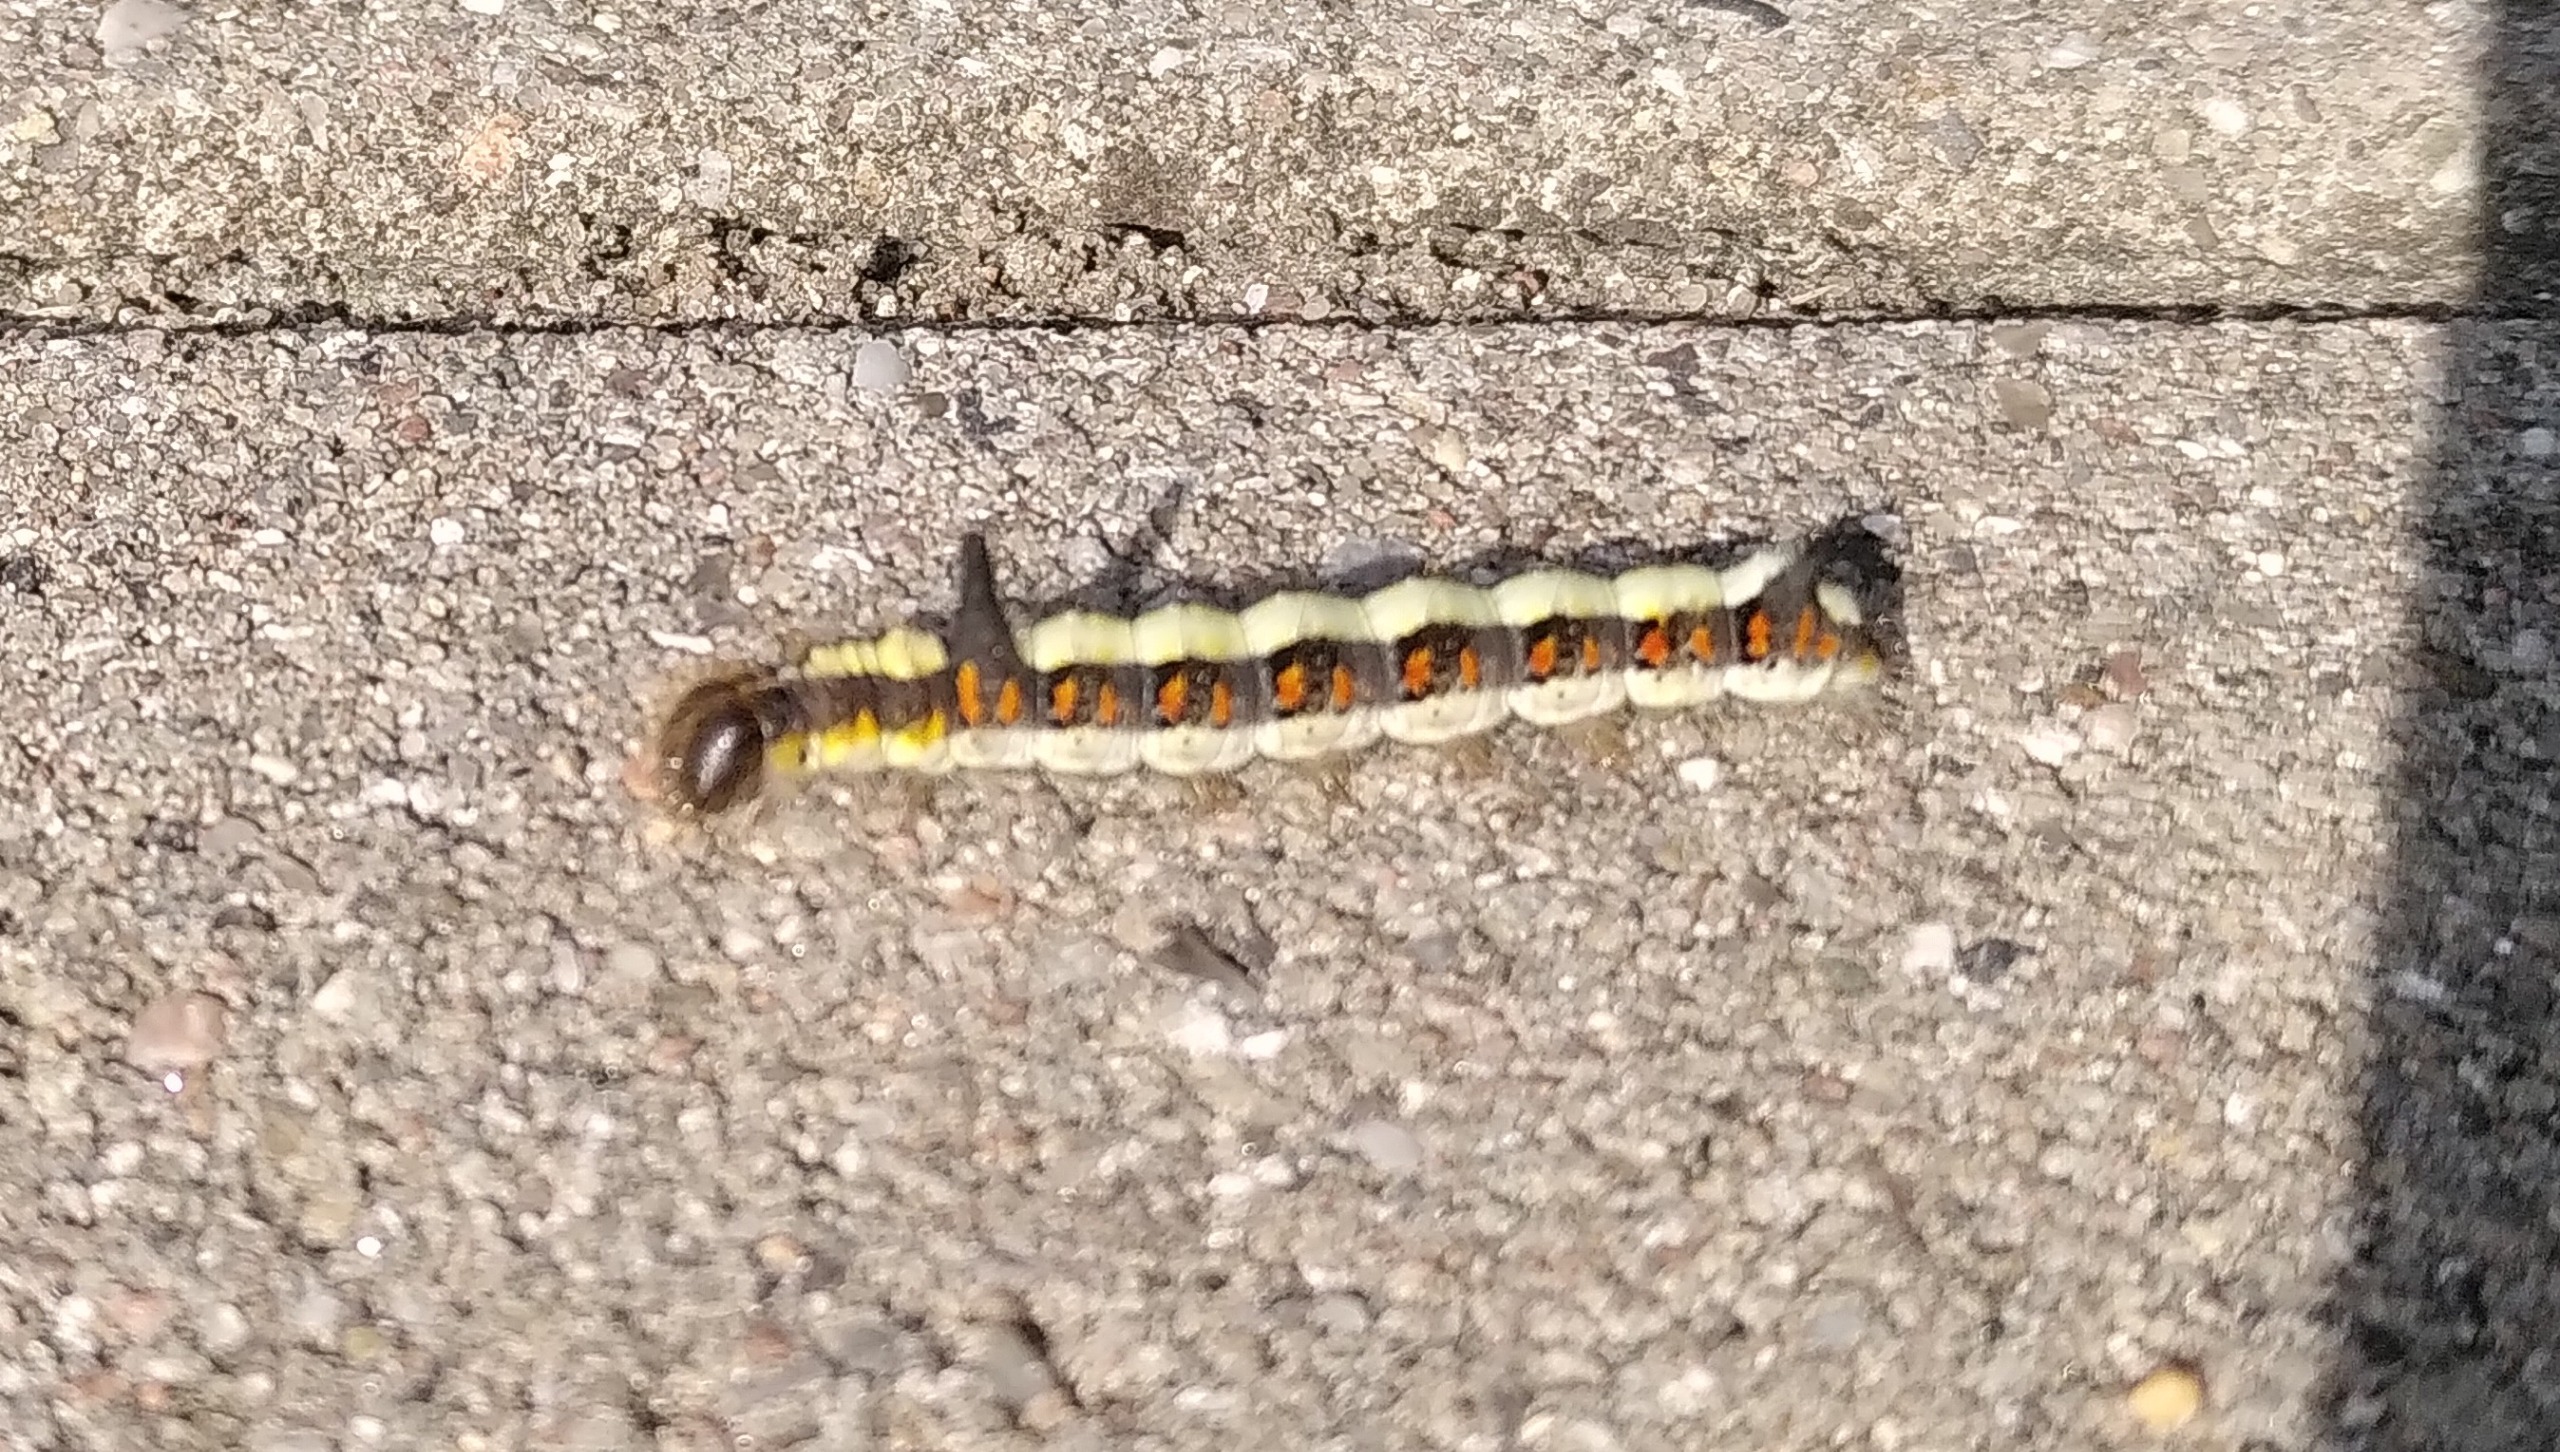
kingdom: Animalia
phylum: Arthropoda
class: Insecta
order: Lepidoptera
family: Noctuidae
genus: Acronicta
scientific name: Acronicta psi
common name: Psi-ugle
